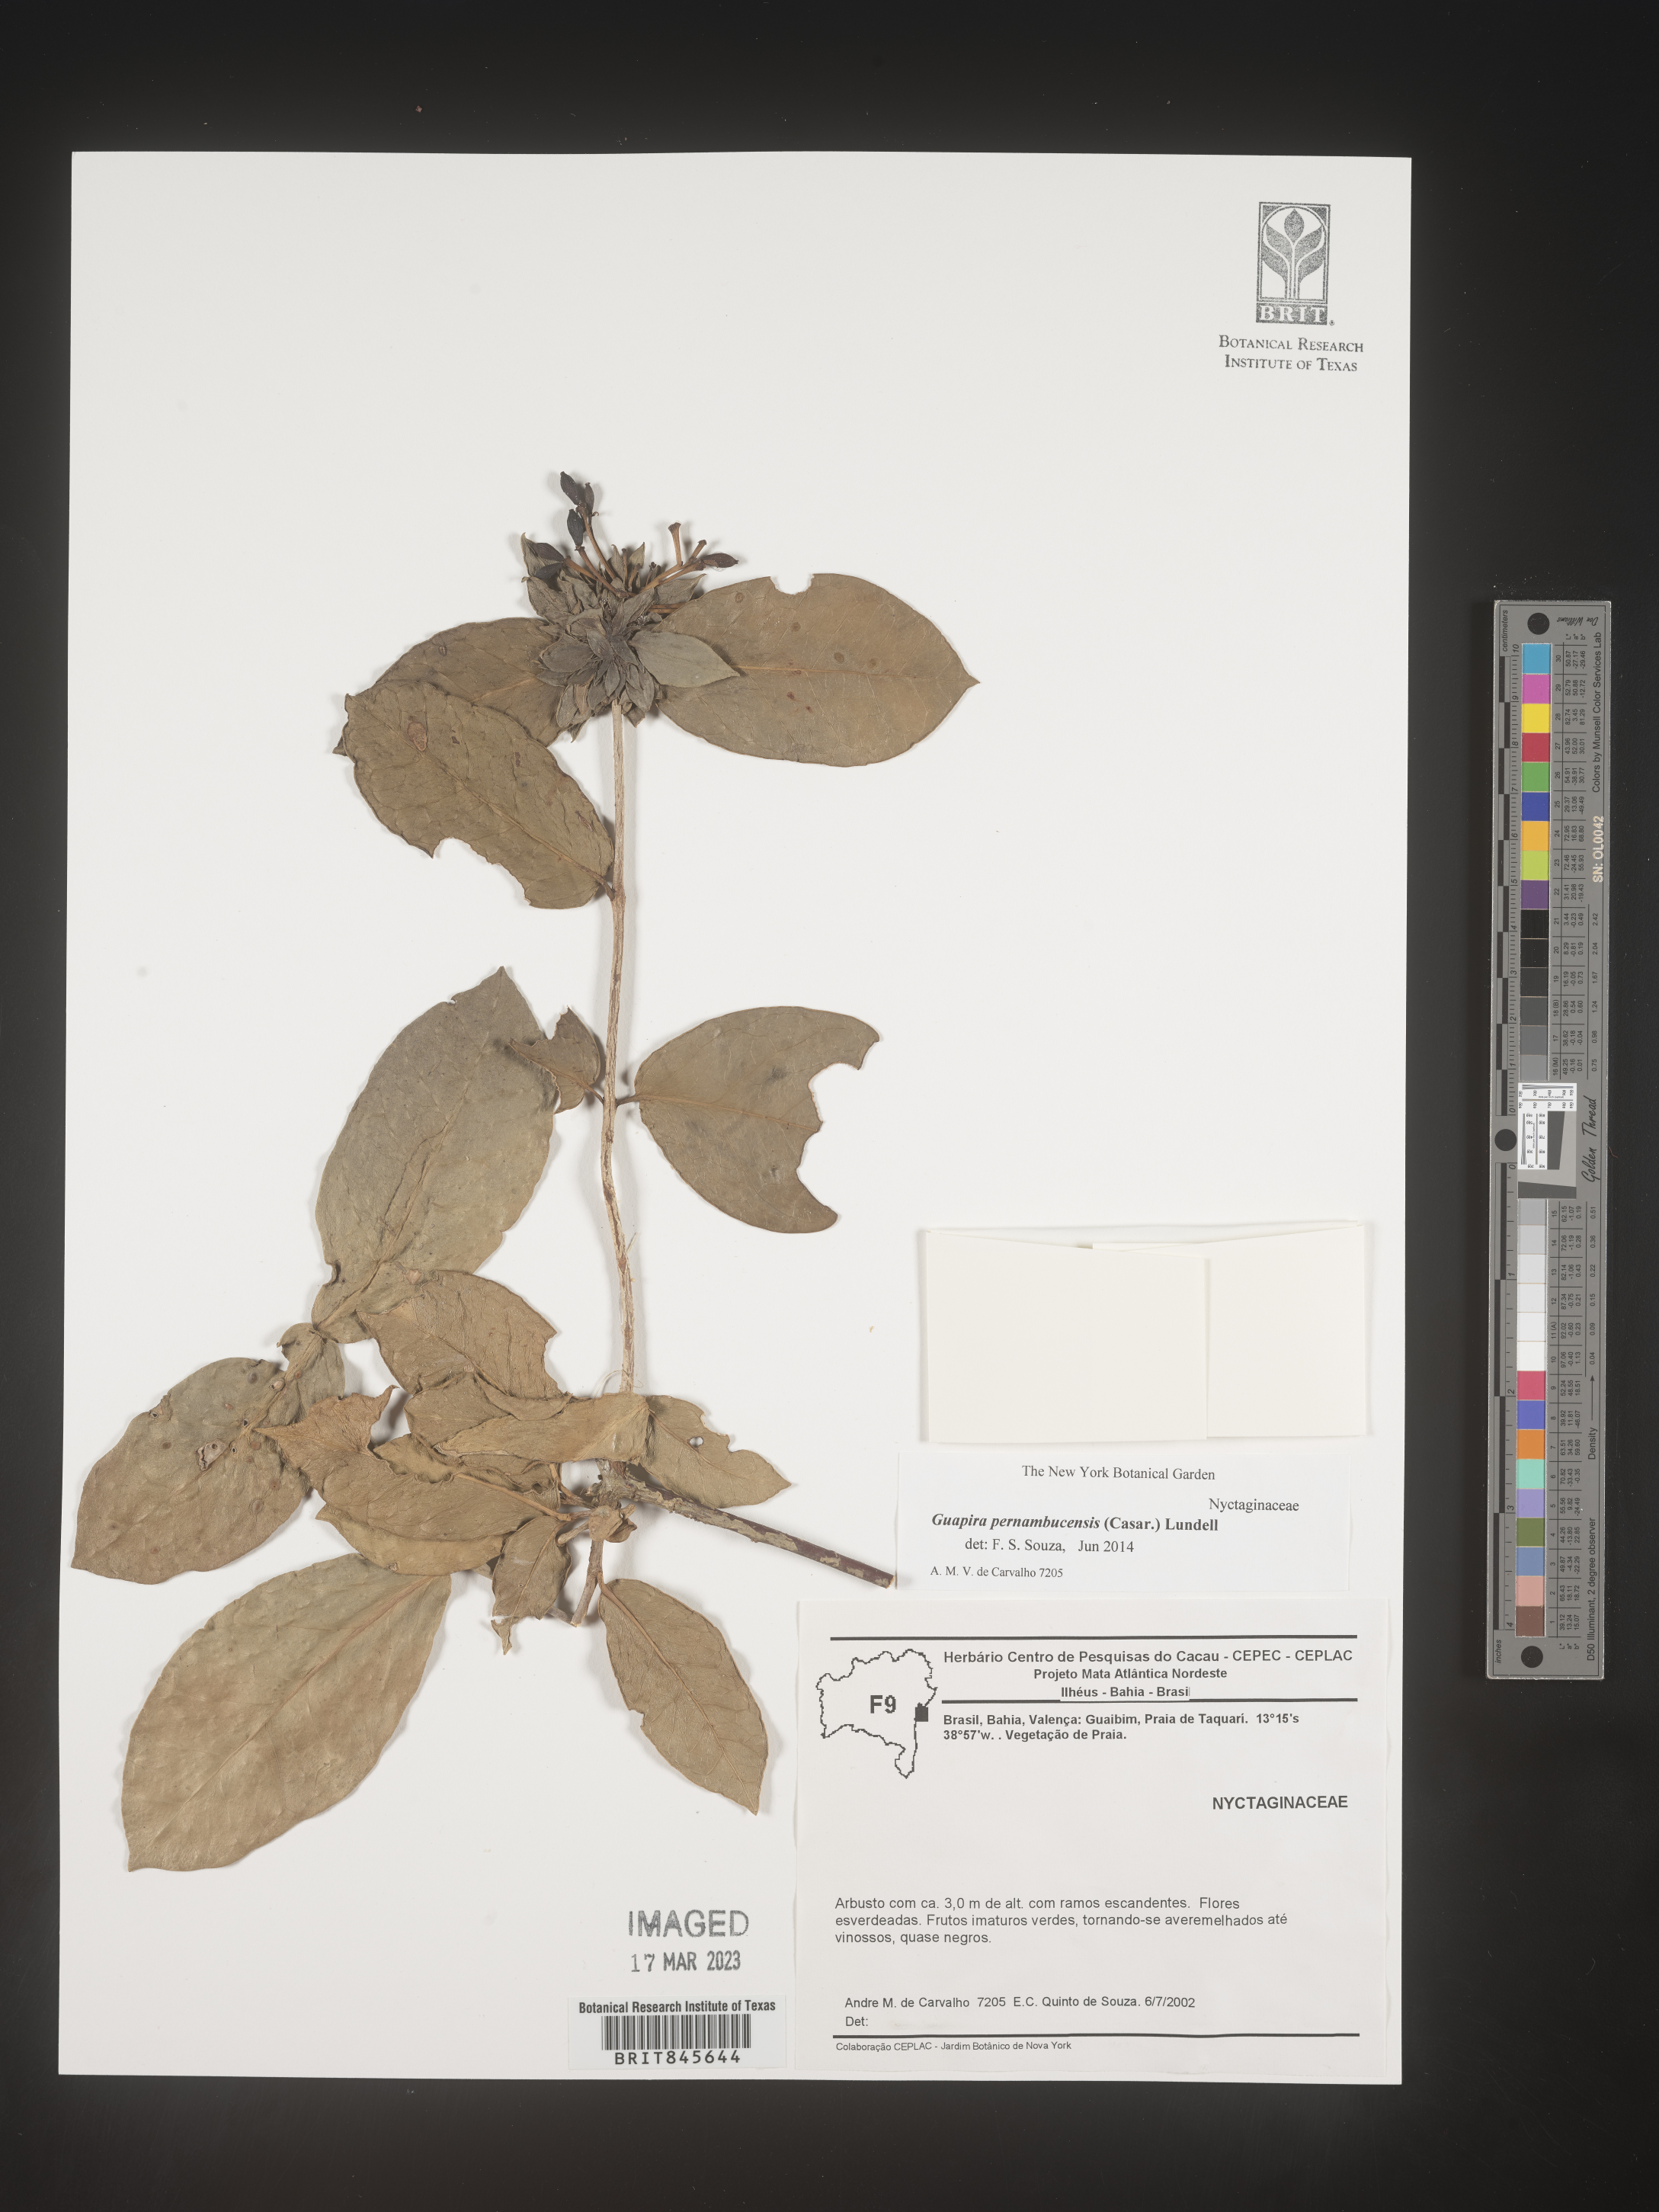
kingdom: Plantae
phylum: Tracheophyta
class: Magnoliopsida
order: Caryophyllales
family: Nyctaginaceae
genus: Guapira
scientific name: Guapira pernambucensis
